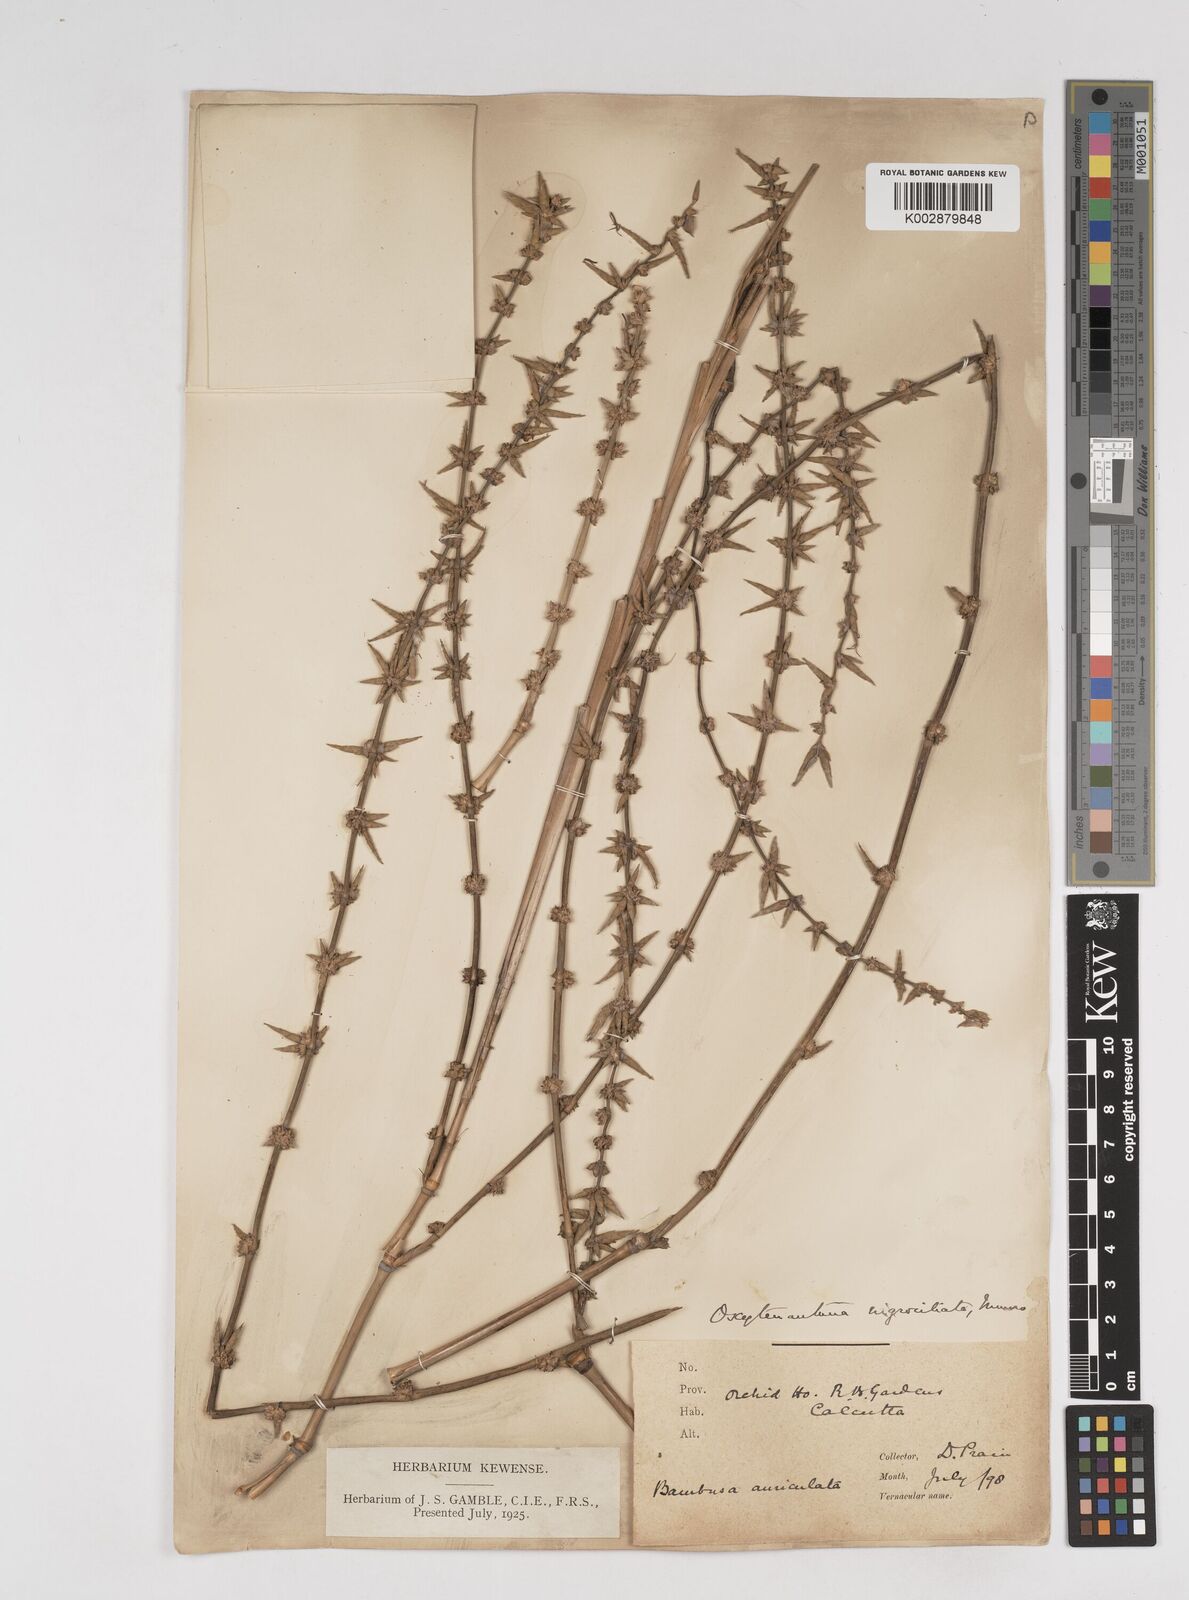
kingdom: Plantae
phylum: Tracheophyta
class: Liliopsida
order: Poales
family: Poaceae
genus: Gigantochloa
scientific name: Gigantochloa nigrociliata
